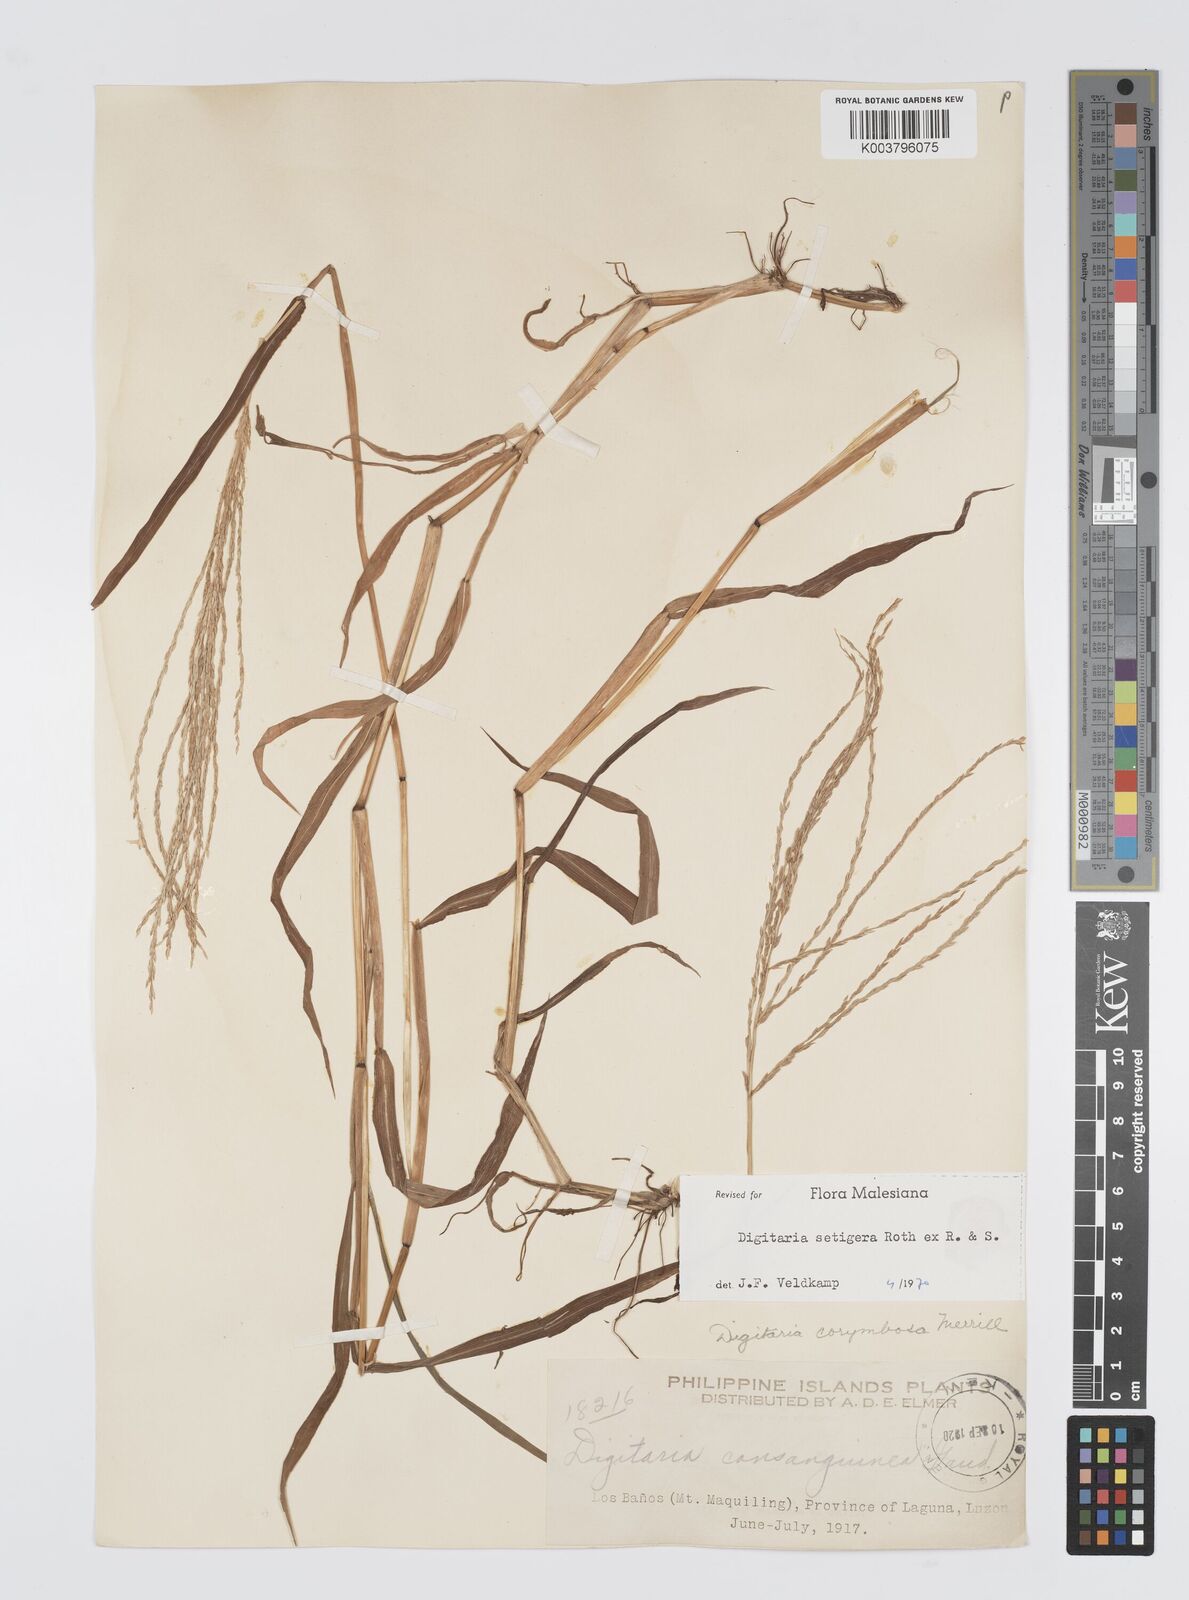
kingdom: Plantae
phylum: Tracheophyta
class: Liliopsida
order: Poales
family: Poaceae
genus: Digitaria
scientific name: Digitaria setigera
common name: East indian crabgrass
